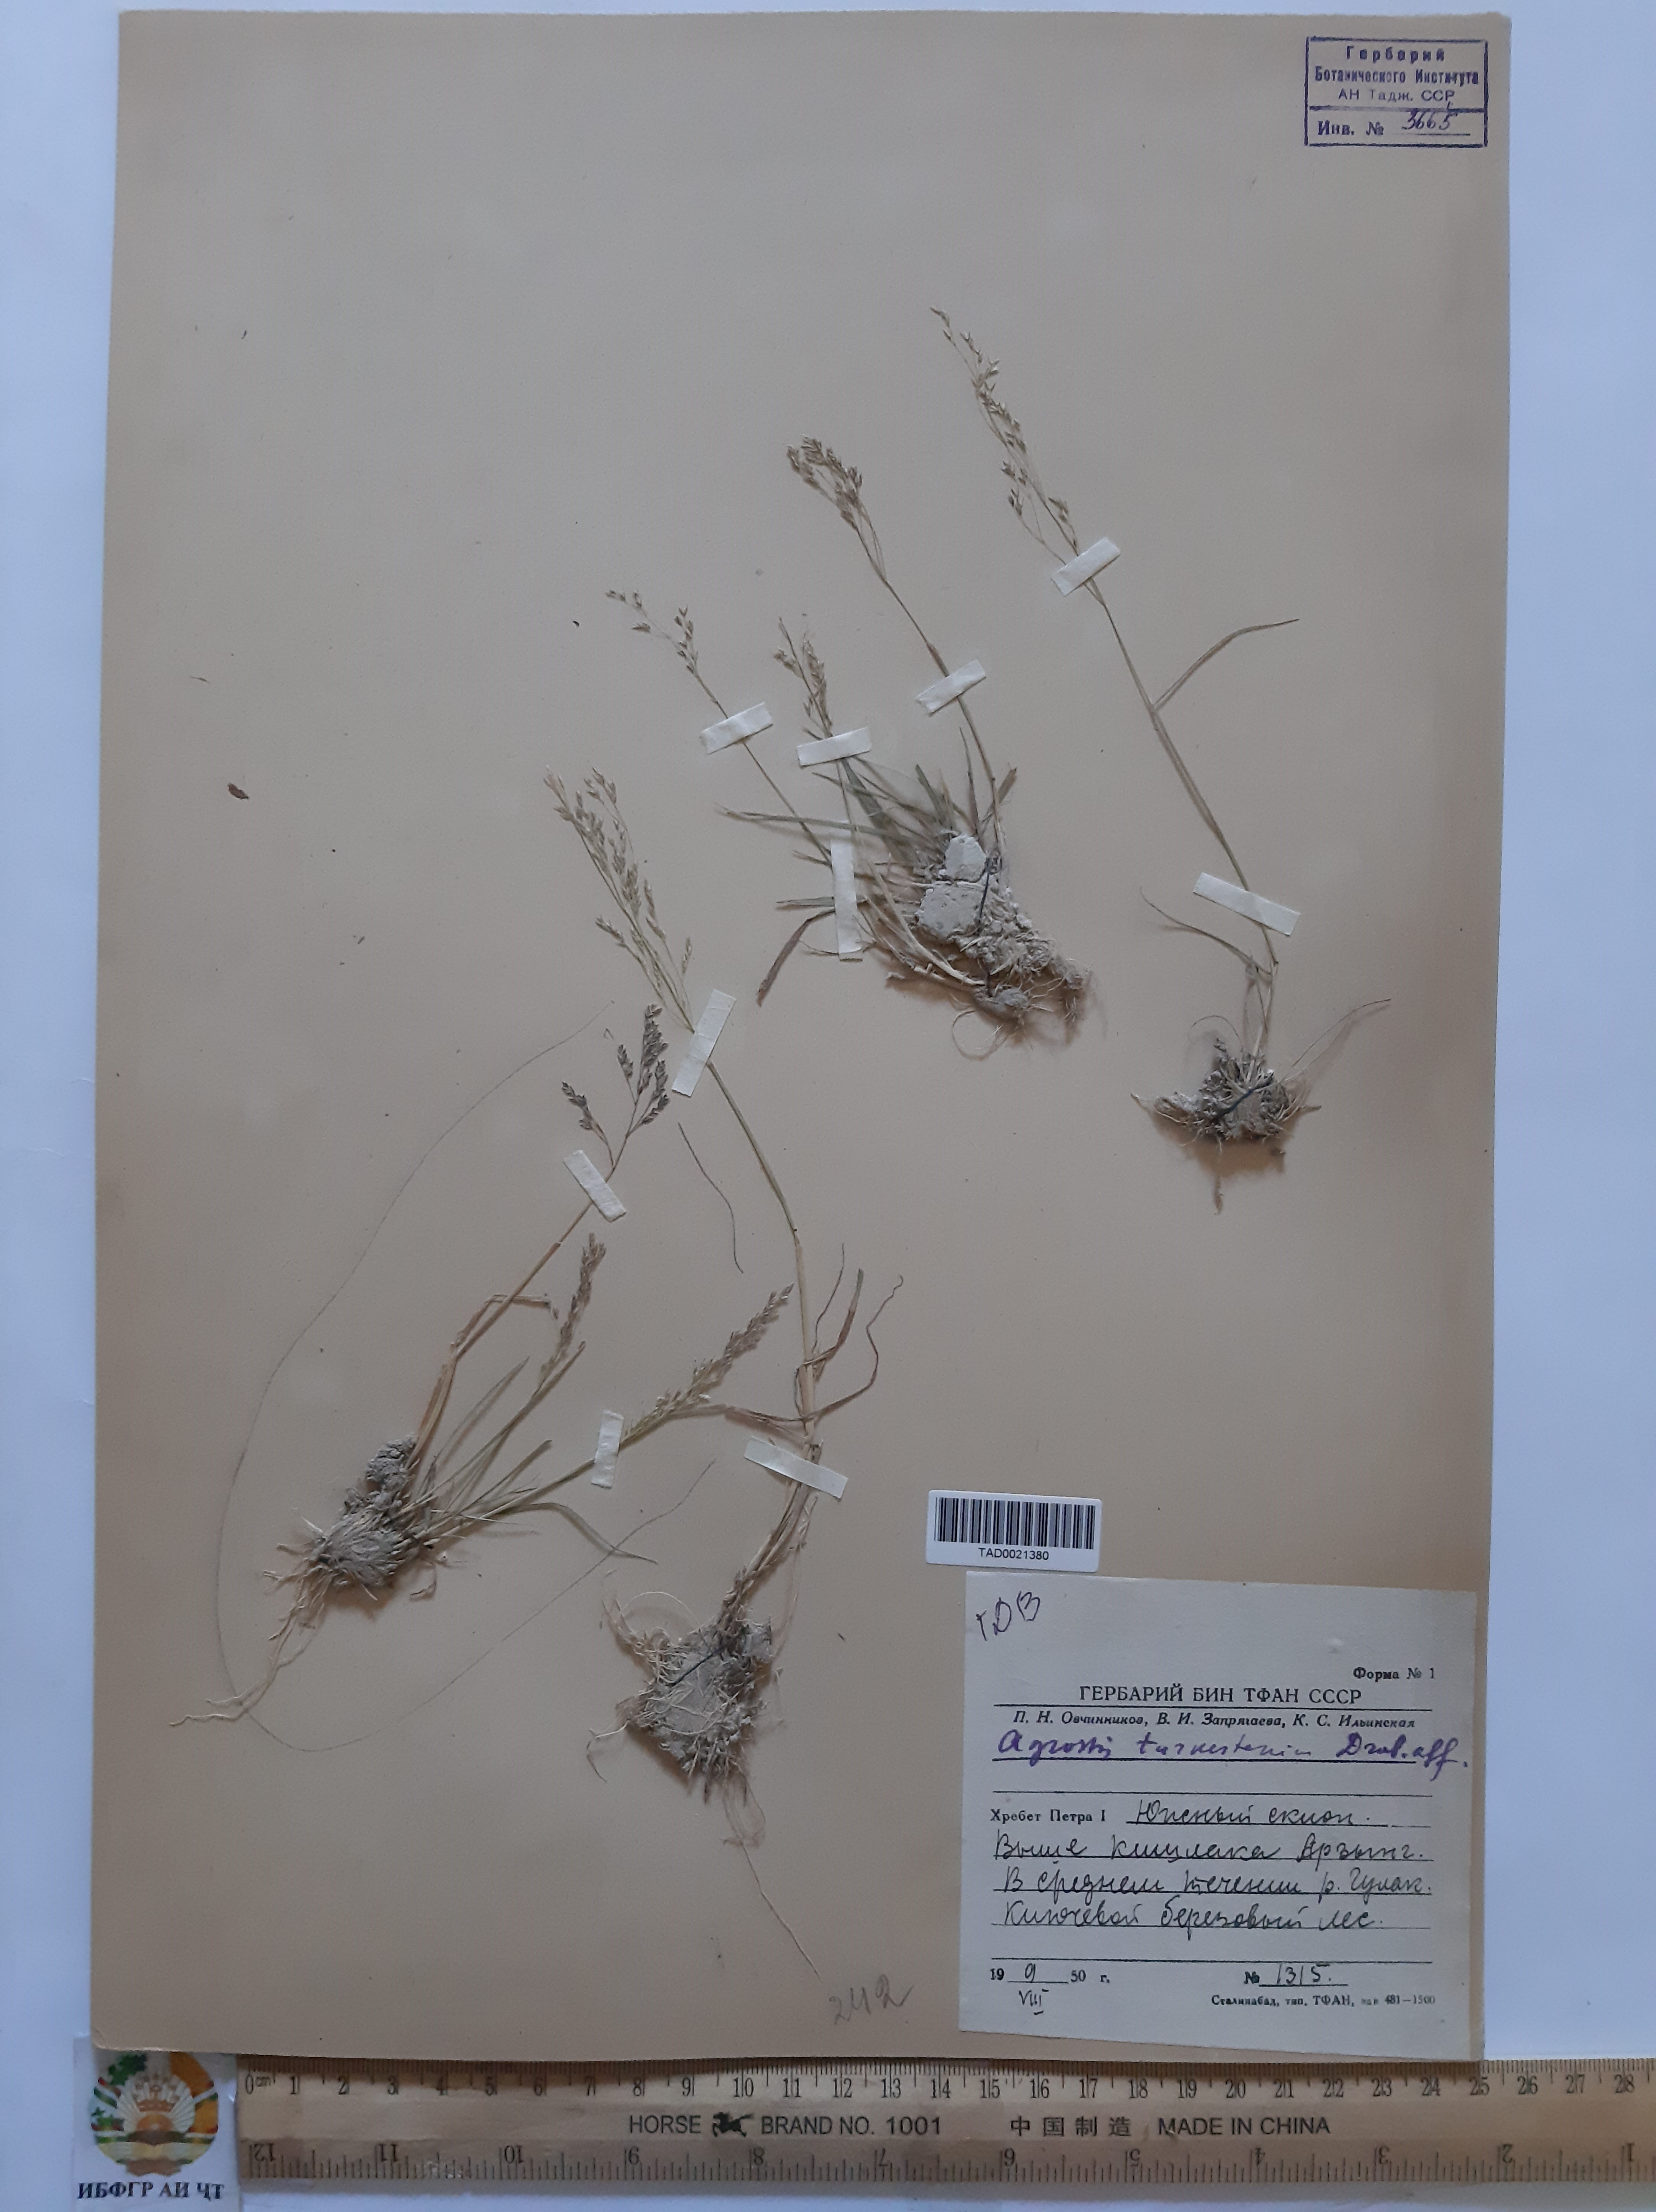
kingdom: Plantae
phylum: Tracheophyta
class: Liliopsida
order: Poales
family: Poaceae
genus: Poa
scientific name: Poa nemoralis
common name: Wood bluegrass
